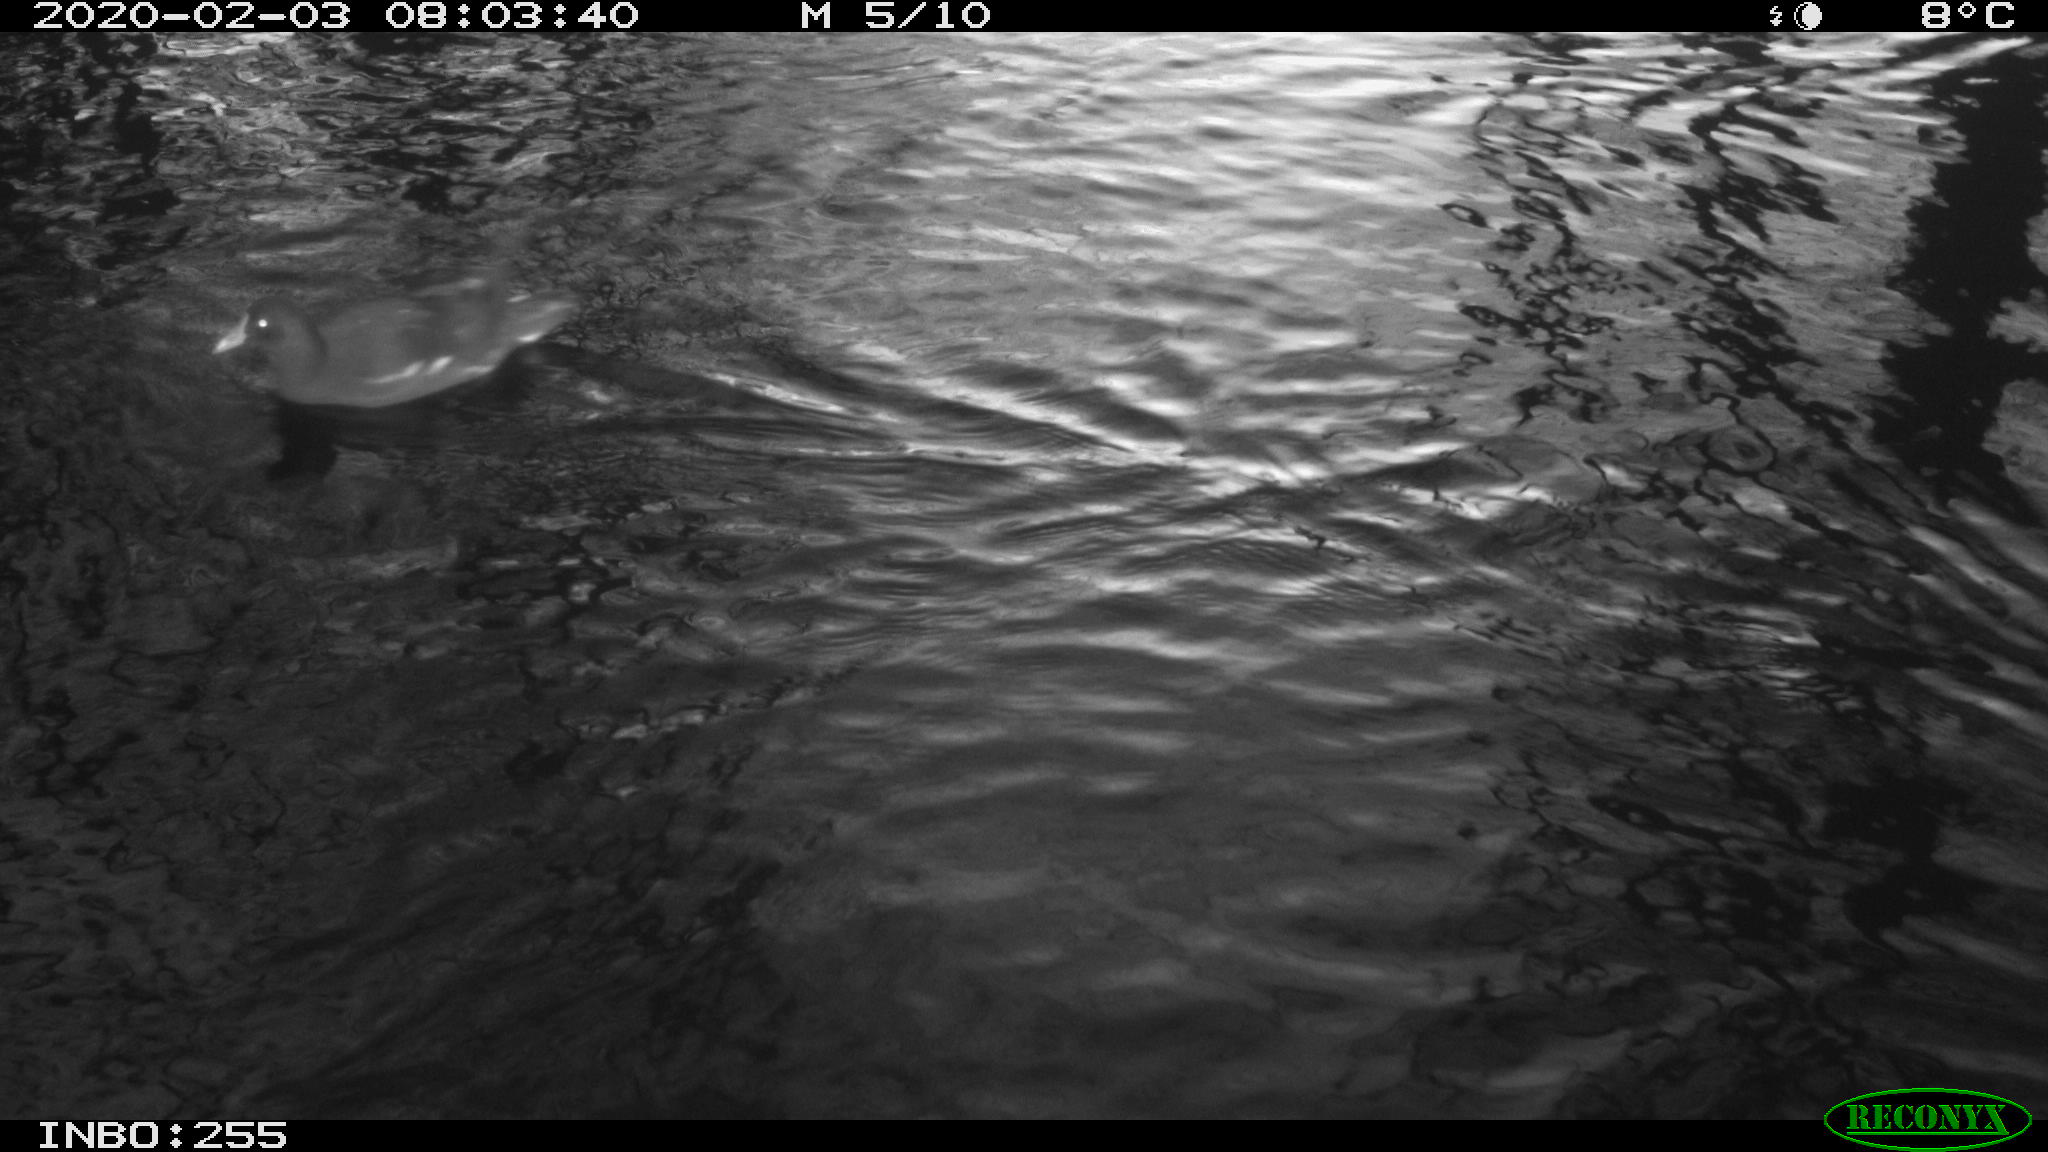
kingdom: Animalia
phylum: Chordata
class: Aves
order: Gruiformes
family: Rallidae
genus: Gallinula
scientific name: Gallinula chloropus
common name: Common moorhen
